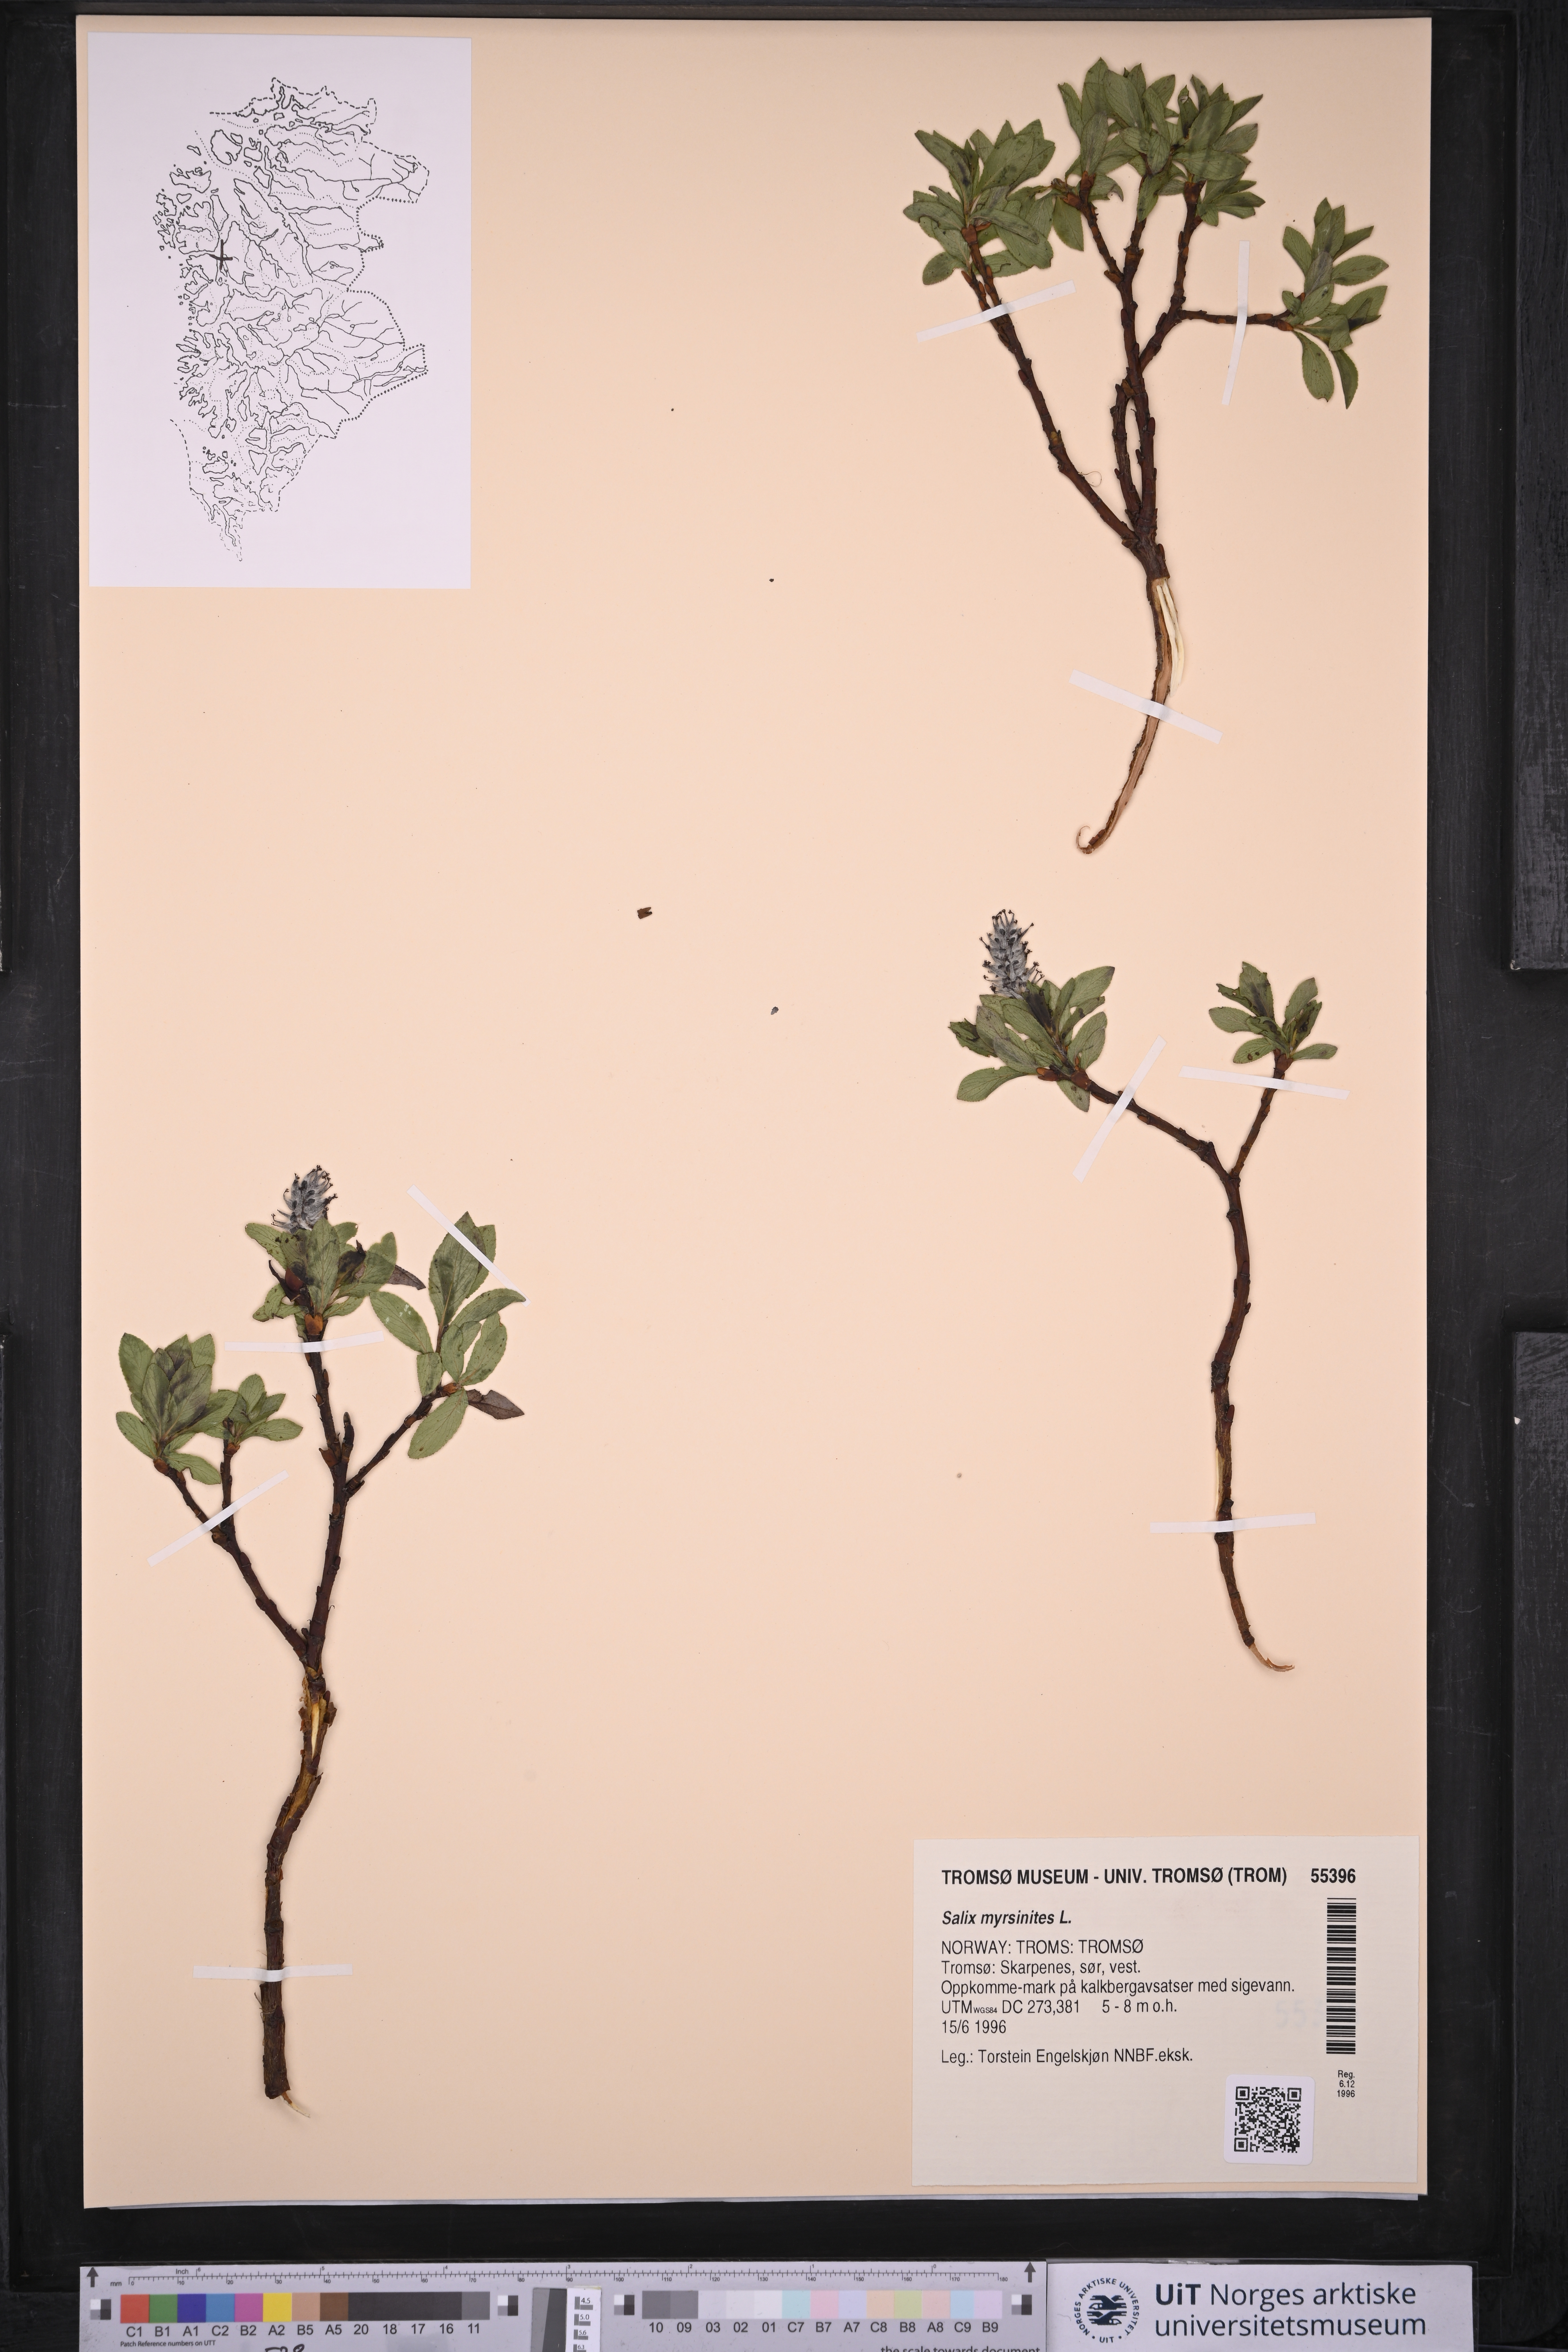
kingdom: Plantae
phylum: Tracheophyta
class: Magnoliopsida
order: Malpighiales
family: Salicaceae
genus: Salix
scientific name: Salix myrsinites
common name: Myrtle willow
